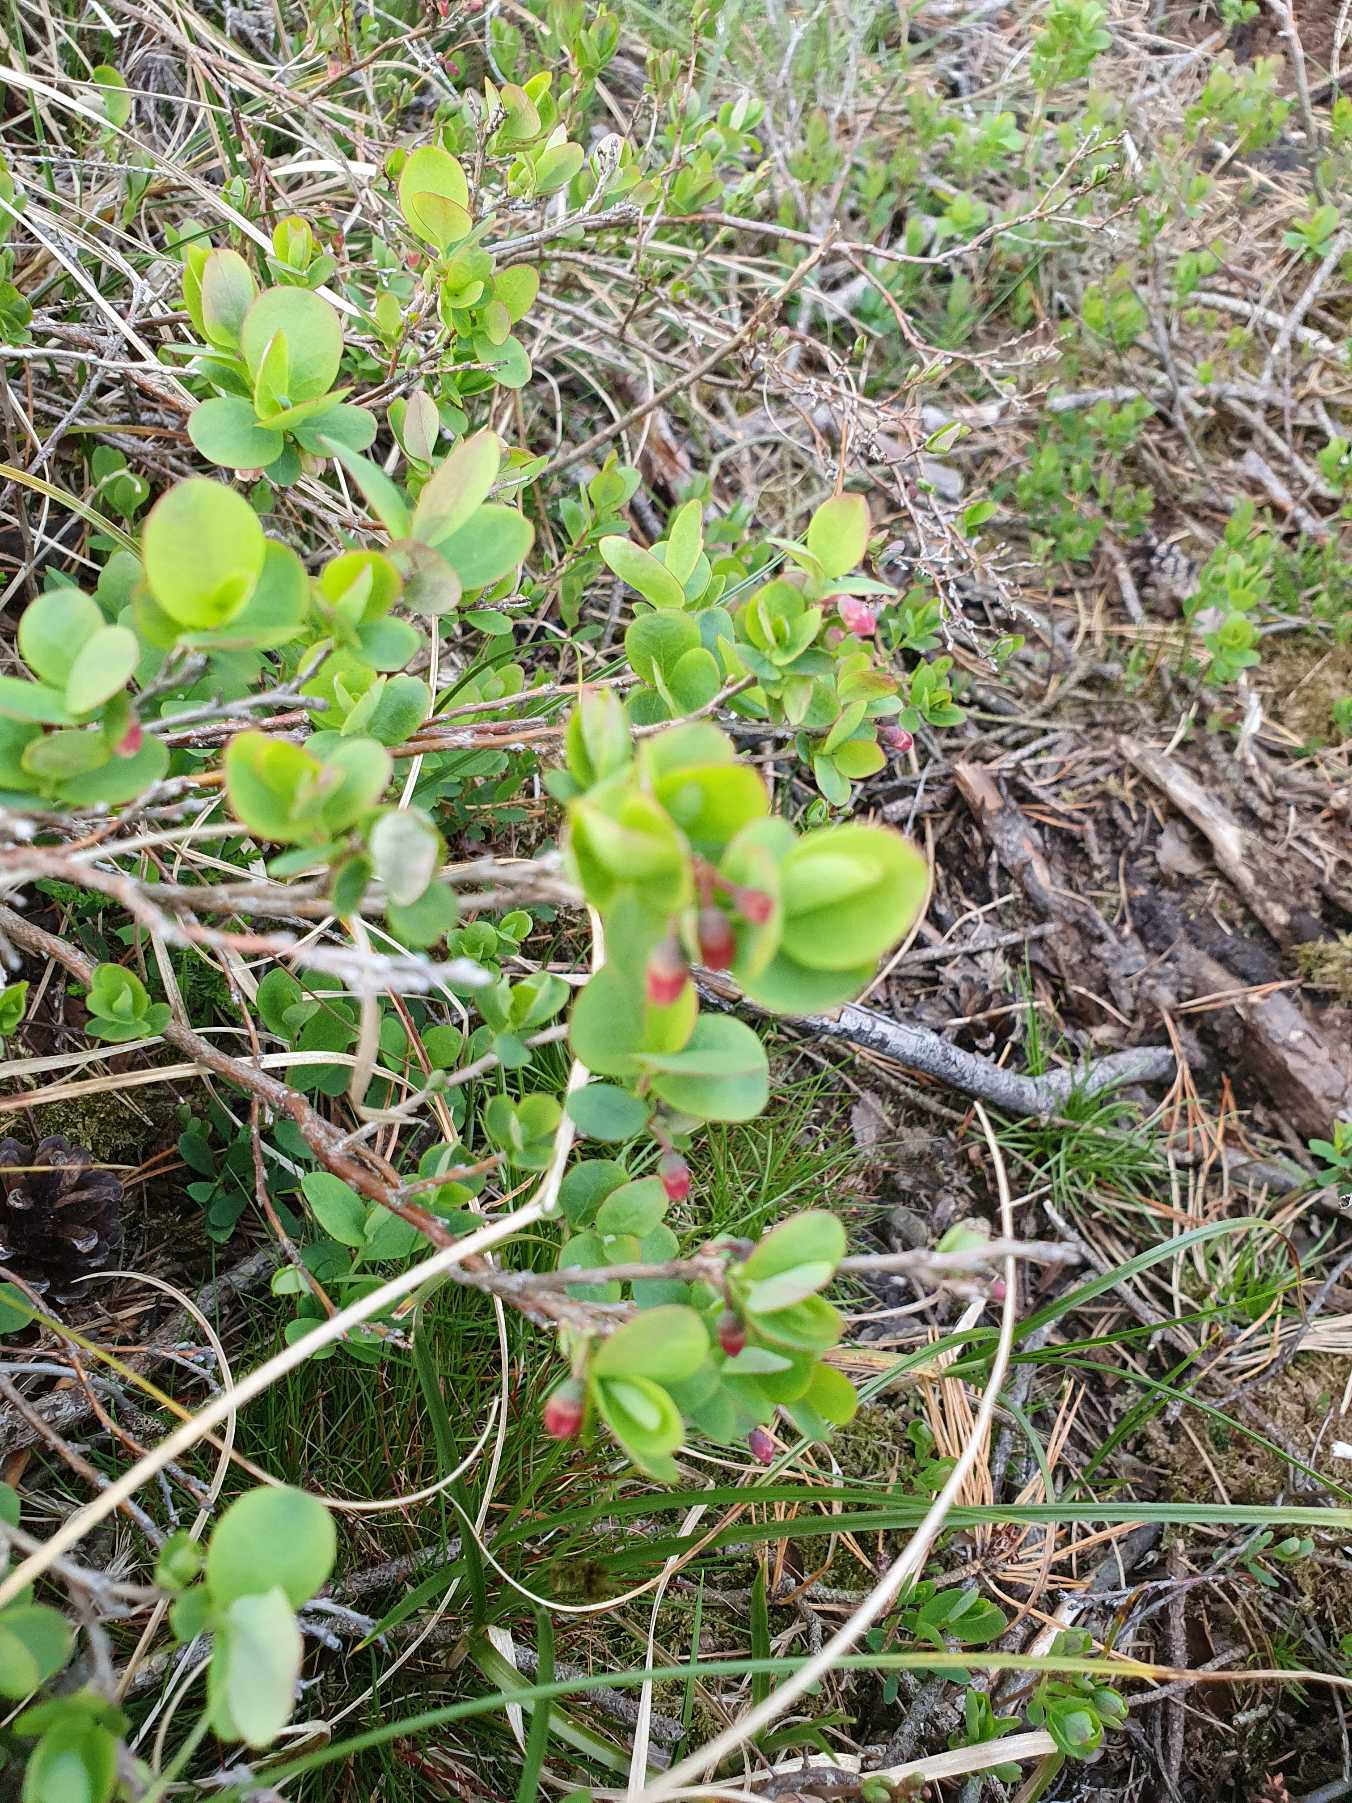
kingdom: Plantae
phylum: Tracheophyta
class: Magnoliopsida
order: Ericales
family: Ericaceae
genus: Vaccinium
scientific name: Vaccinium uliginosum
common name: Mose-bølle
